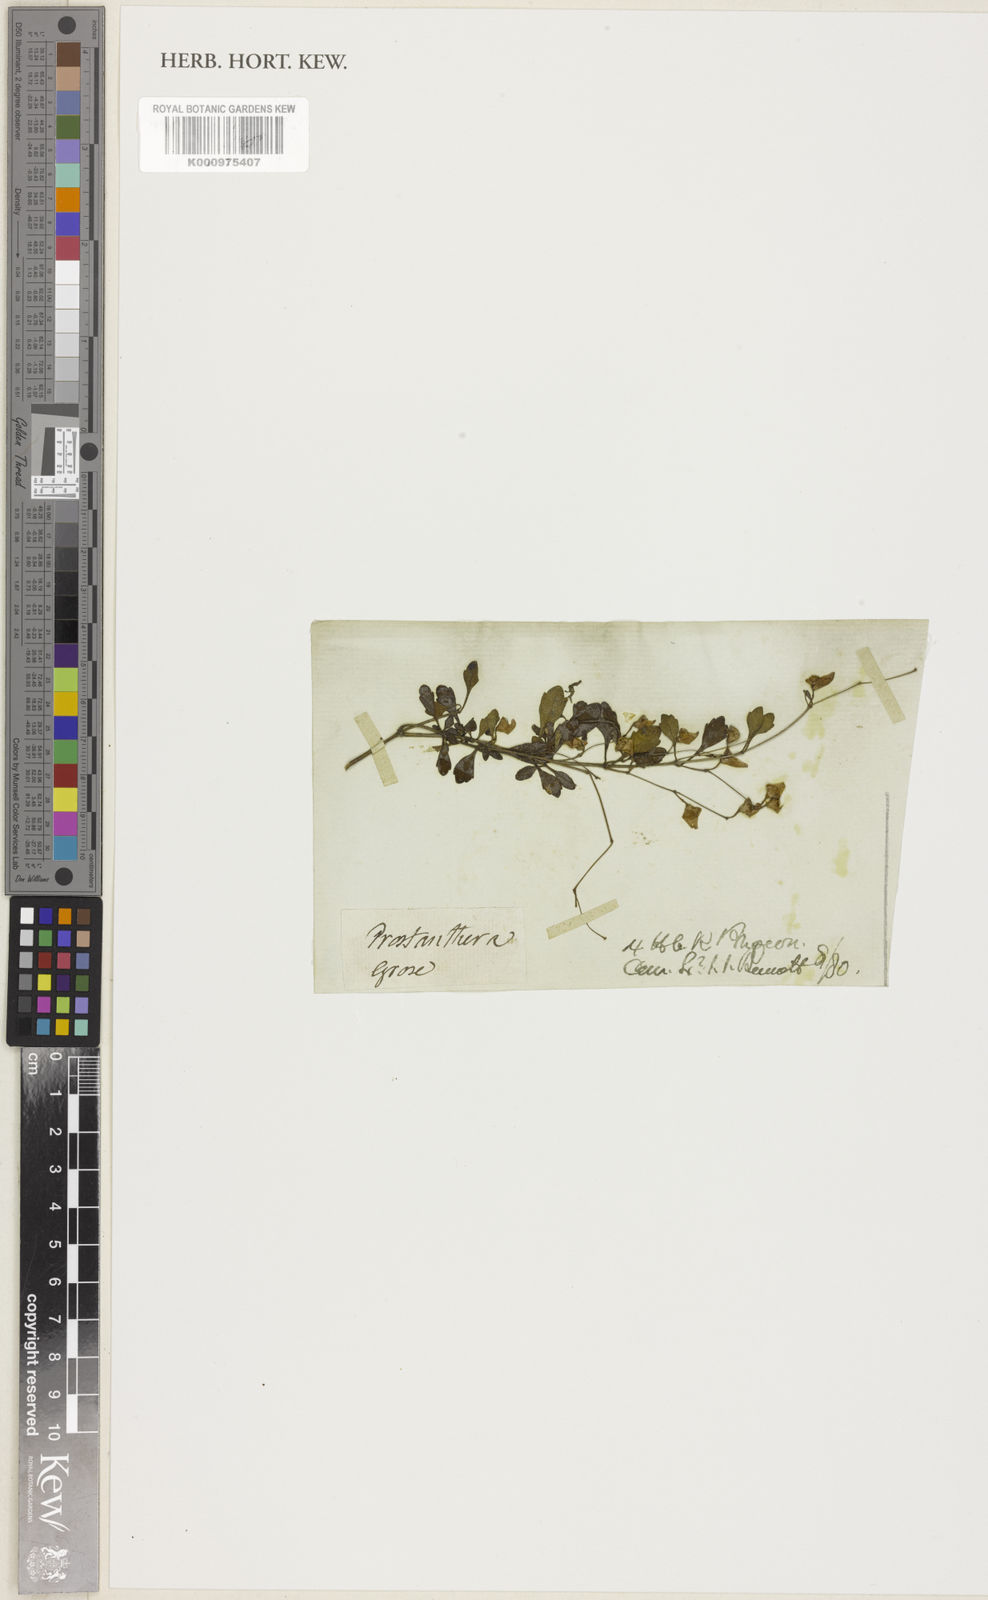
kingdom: Plantae
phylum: Tracheophyta
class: Magnoliopsida
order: Lamiales
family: Lamiaceae
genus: Prostanthera
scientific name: Prostanthera incisa
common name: Cut-leaf mintbush
